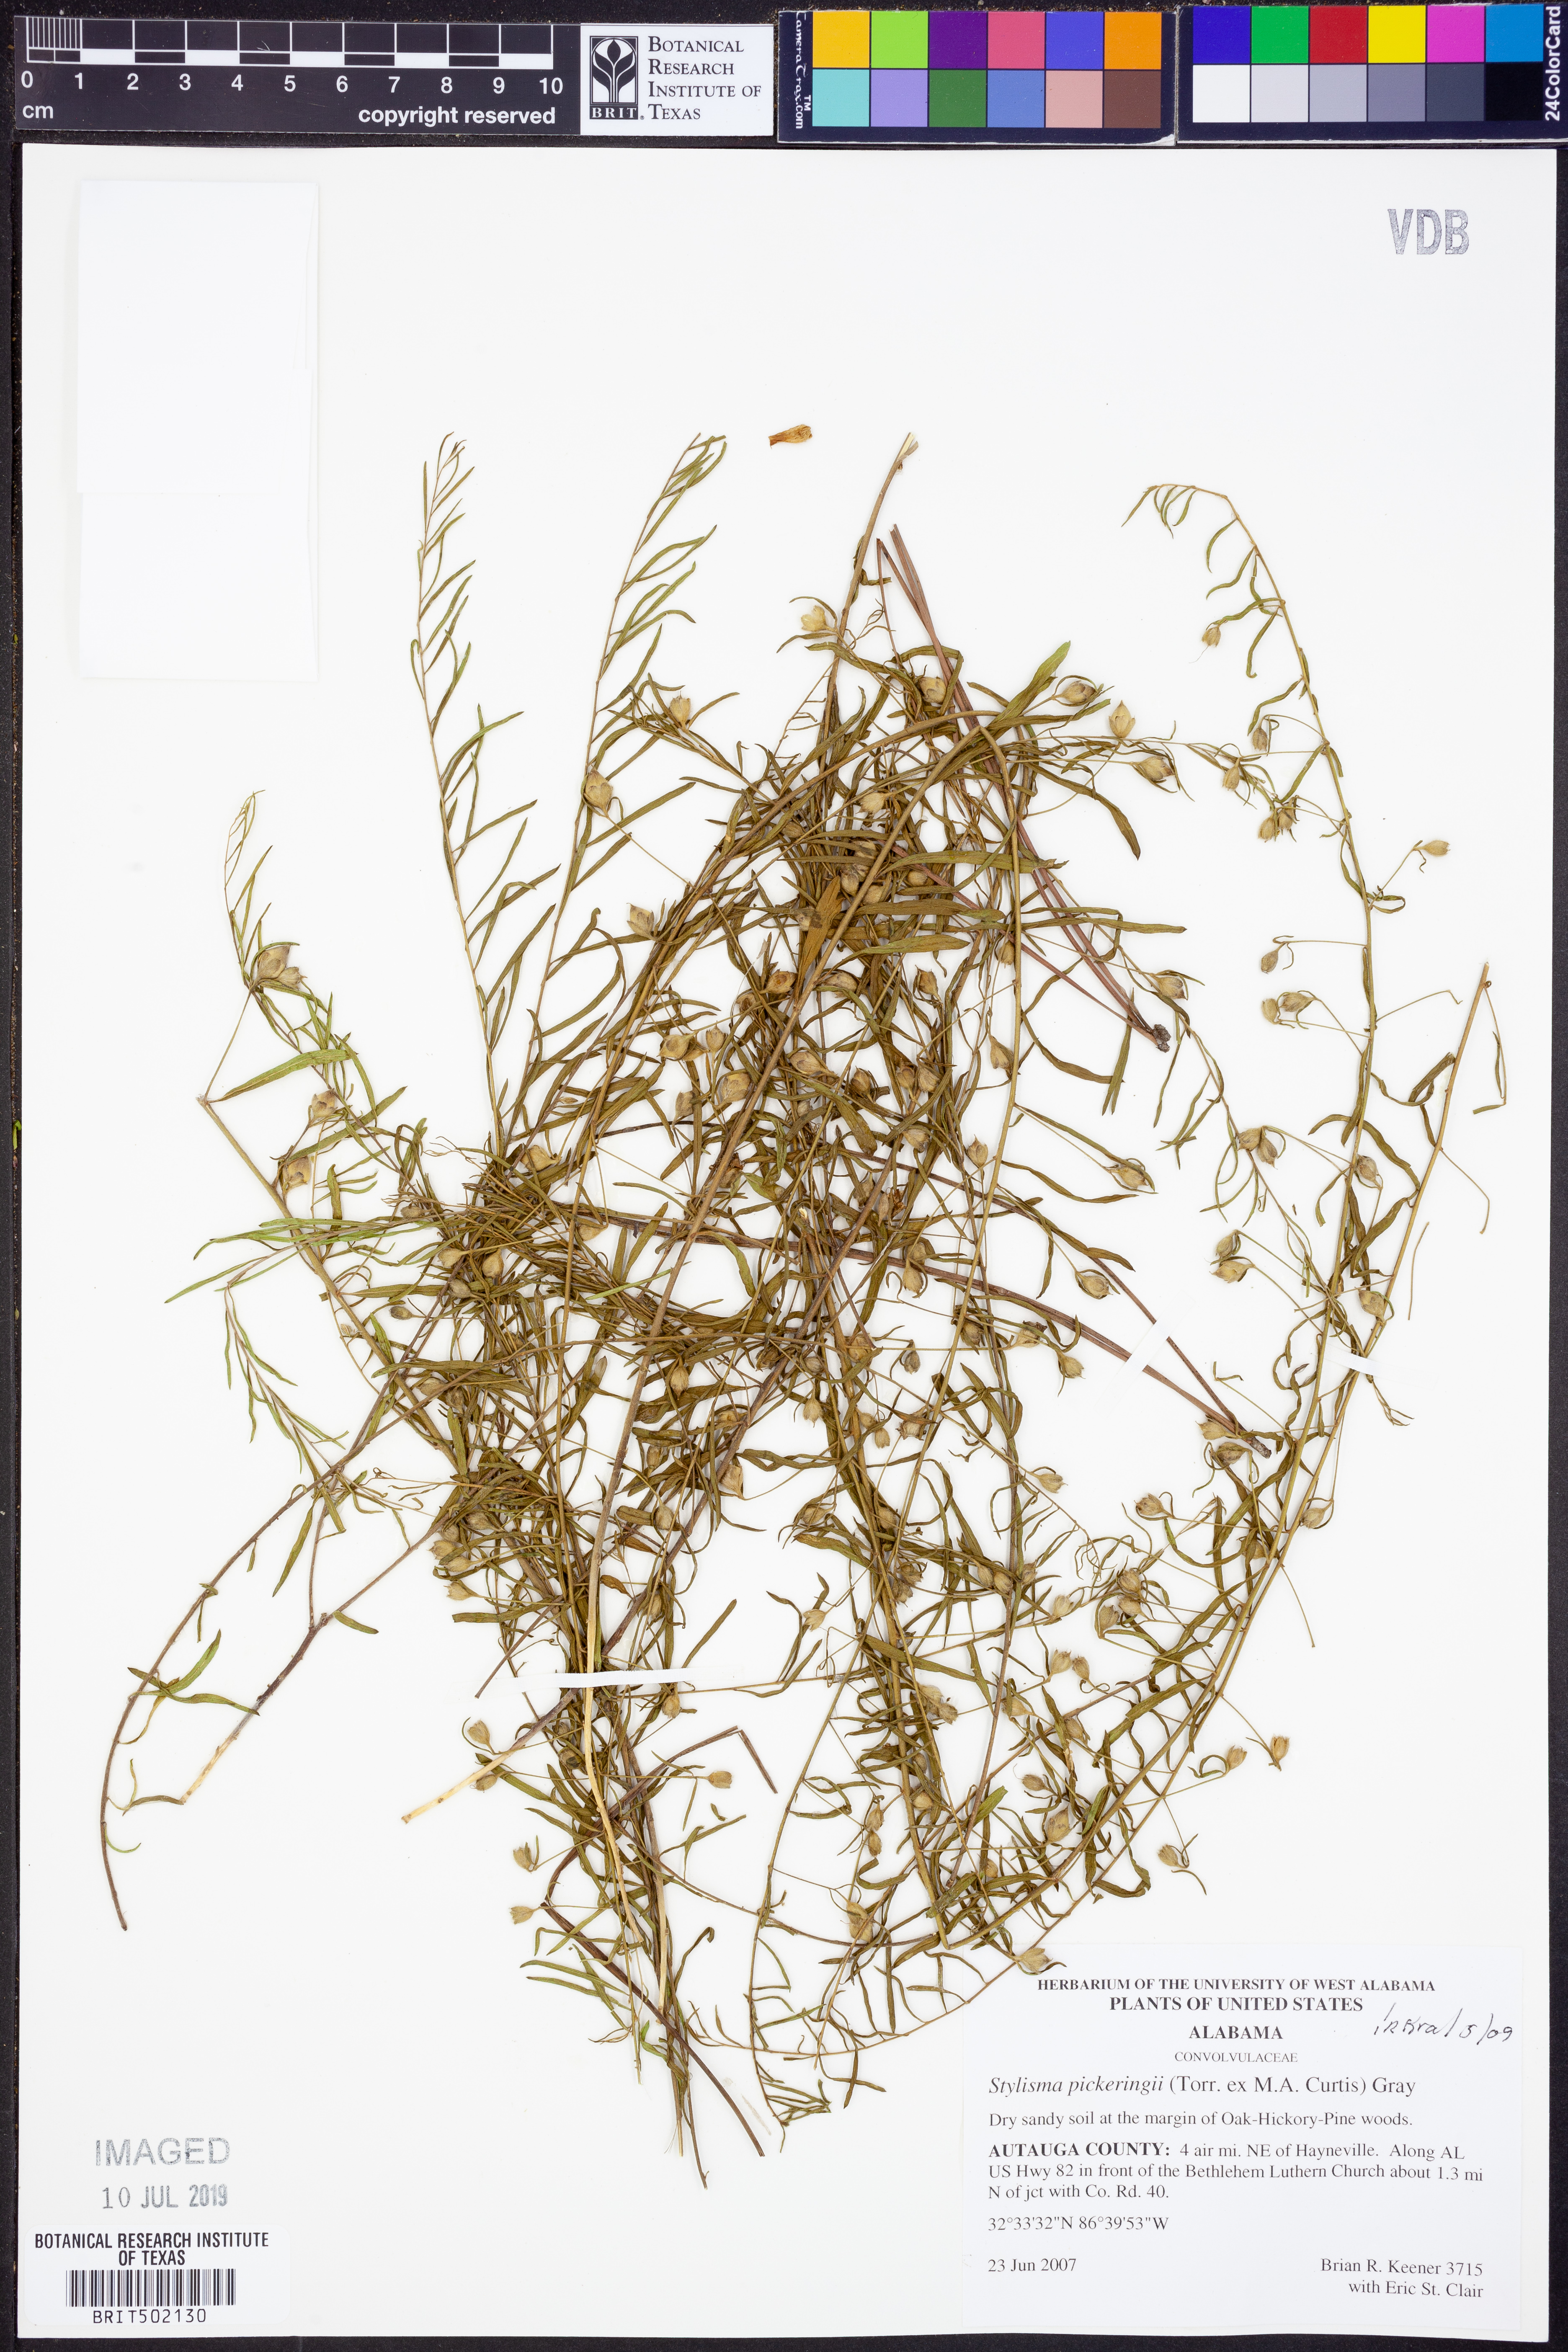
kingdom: Plantae
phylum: Tracheophyta
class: Magnoliopsida
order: Solanales
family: Convolvulaceae
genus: Stylisma
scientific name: Stylisma pickeringii
